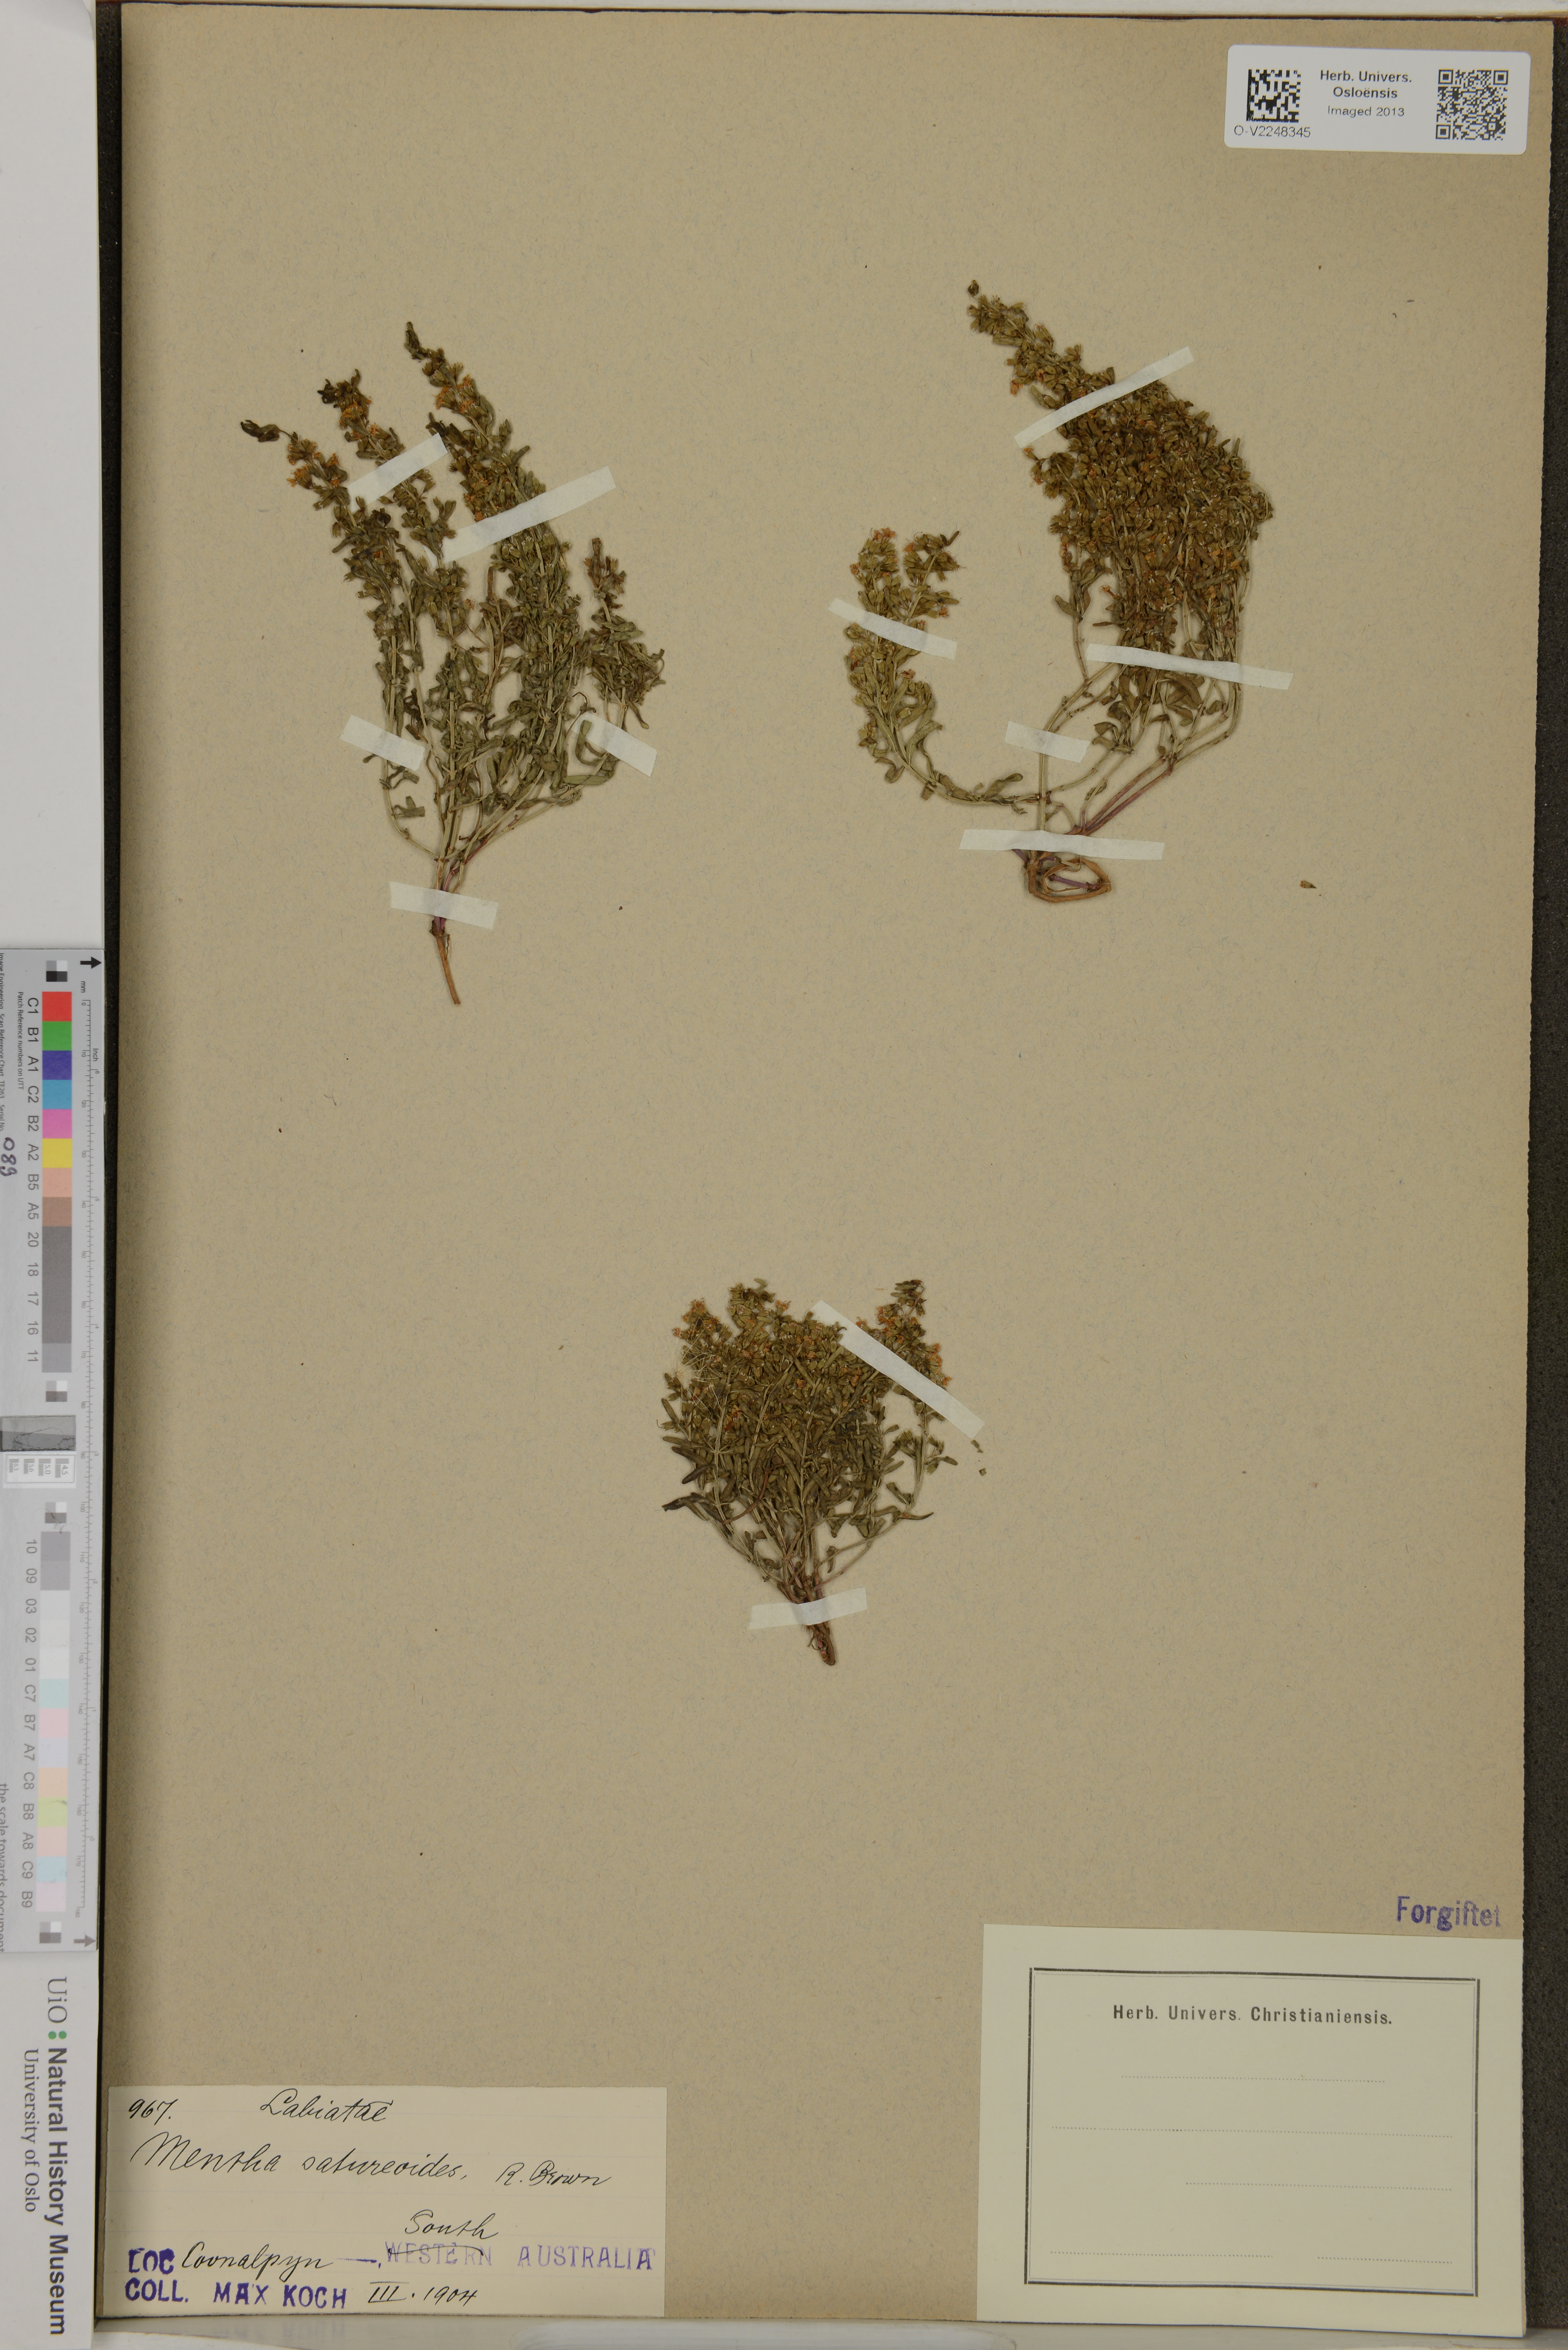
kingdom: Plantae
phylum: Tracheophyta
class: Magnoliopsida
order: Lamiales
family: Lamiaceae
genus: Mentha
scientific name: Mentha satureioides
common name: Brisbane pennyroyal
